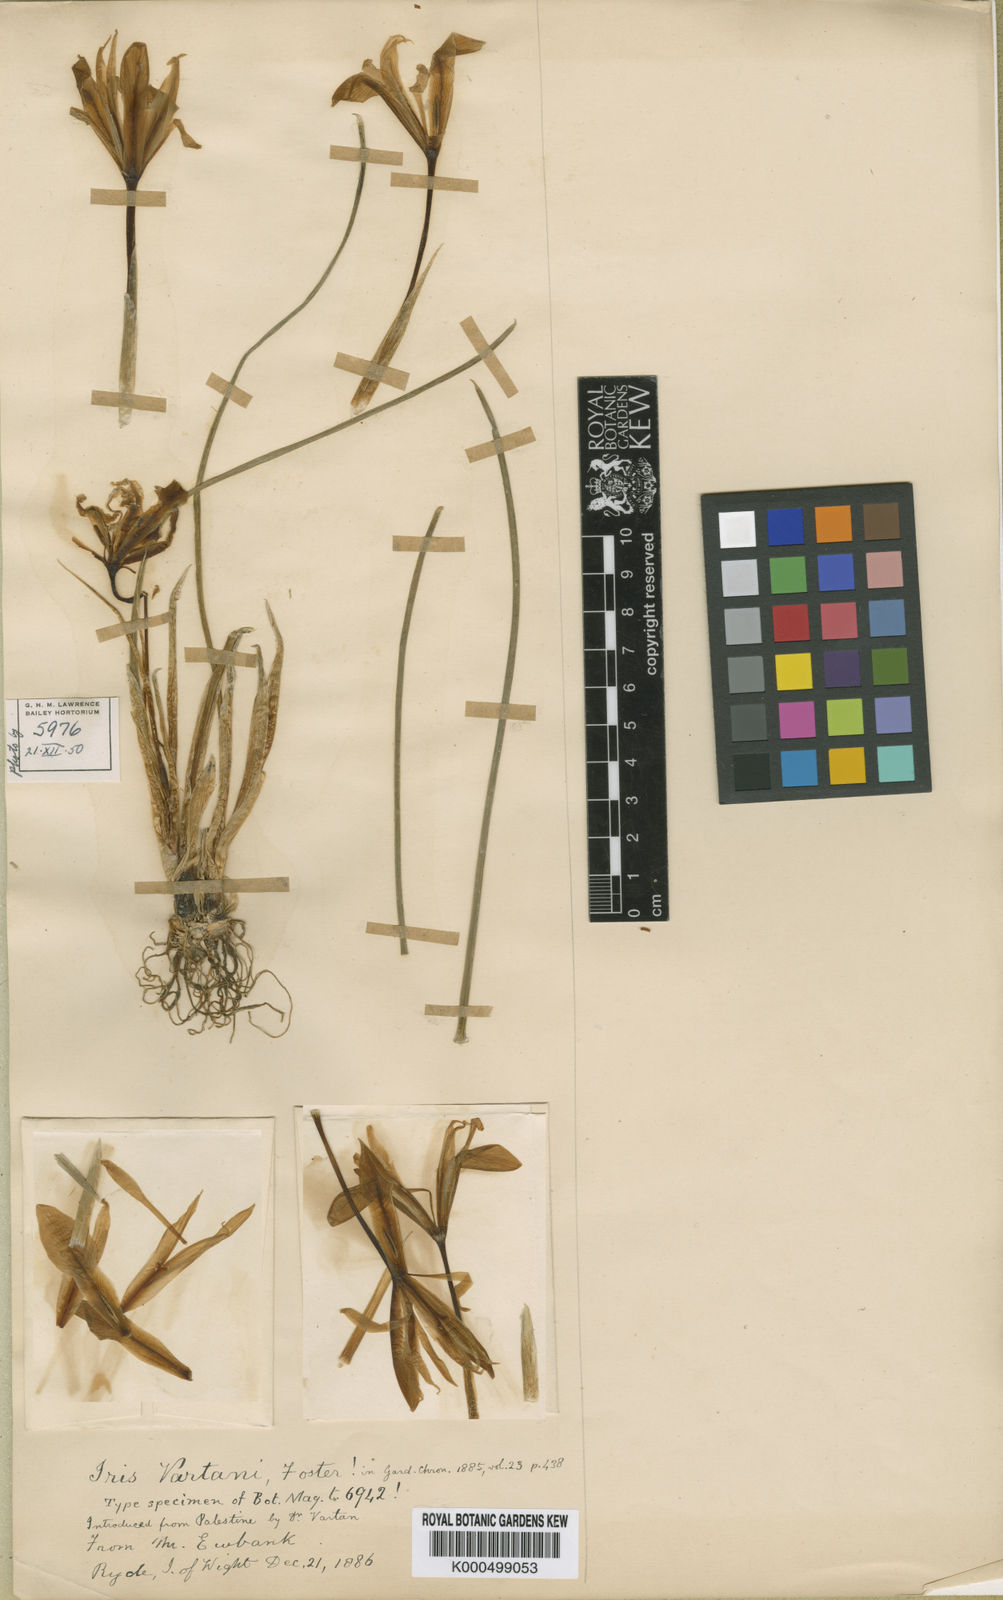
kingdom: Plantae
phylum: Tracheophyta
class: Liliopsida
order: Asparagales
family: Iridaceae
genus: Iris
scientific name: Iris vartanii
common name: Vartanii iris
